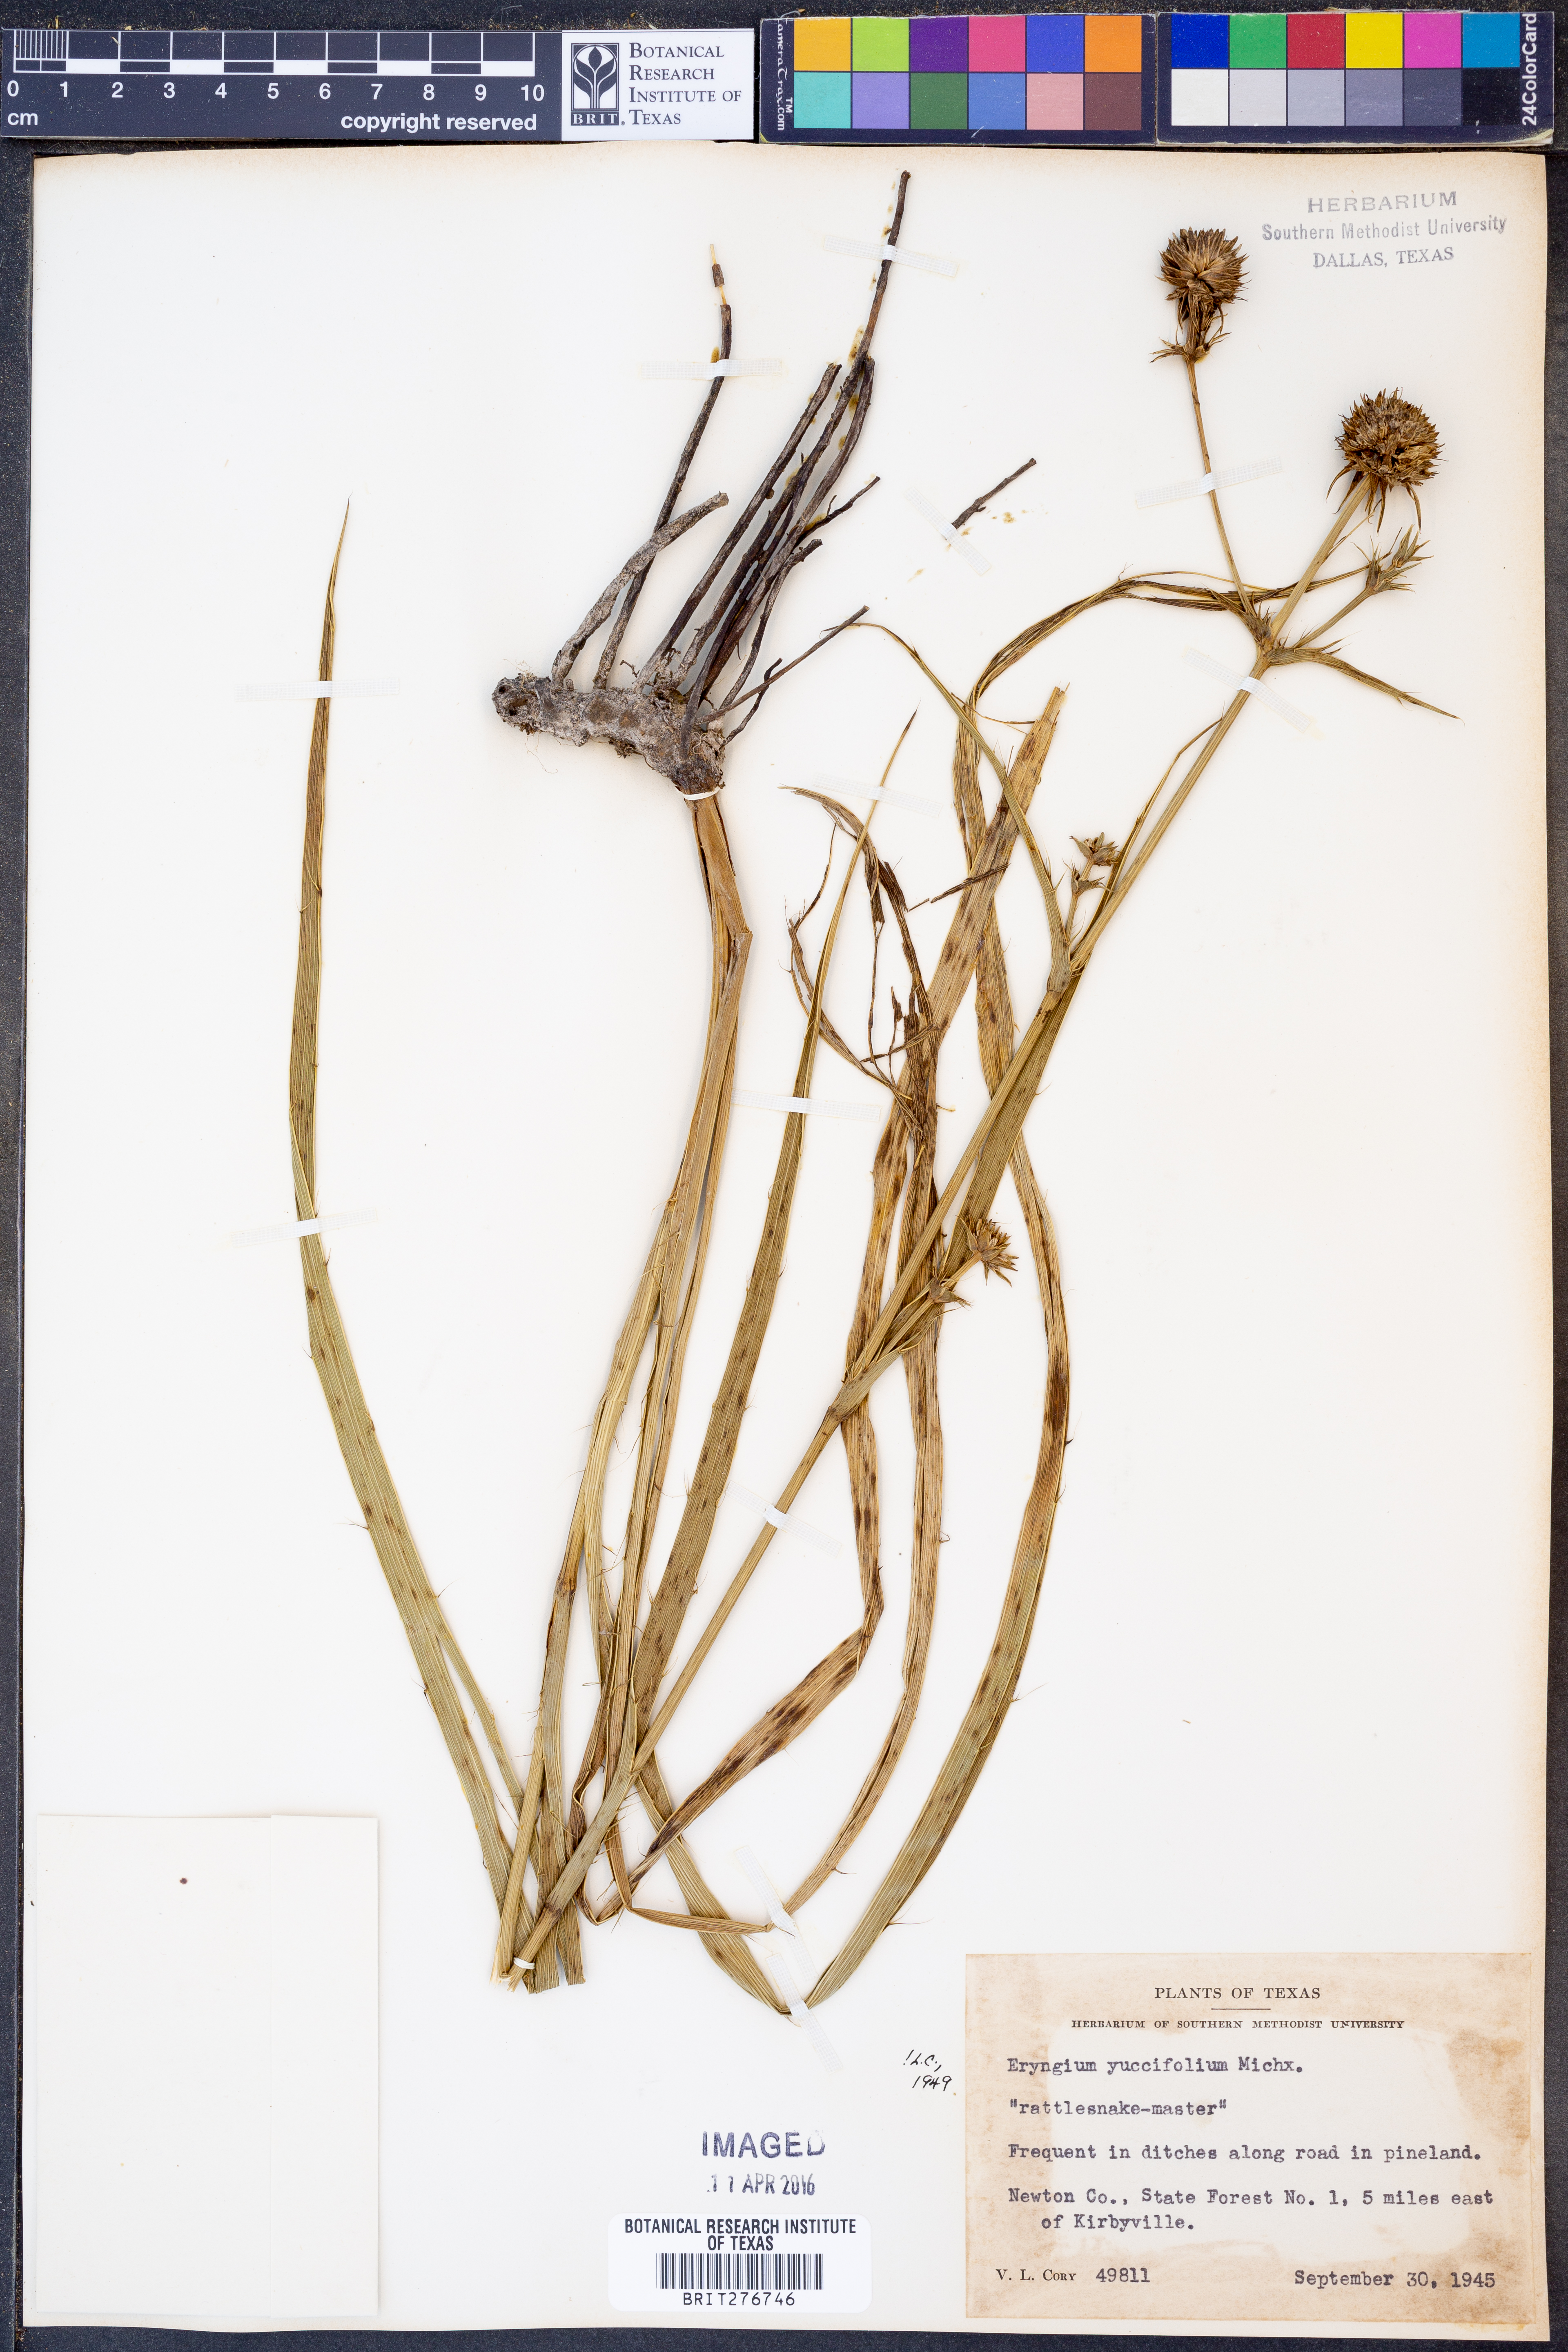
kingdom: Plantae
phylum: Tracheophyta
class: Magnoliopsida
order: Apiales
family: Apiaceae
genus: Eryngium
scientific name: Eryngium yuccifolium
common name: Button eryngo
